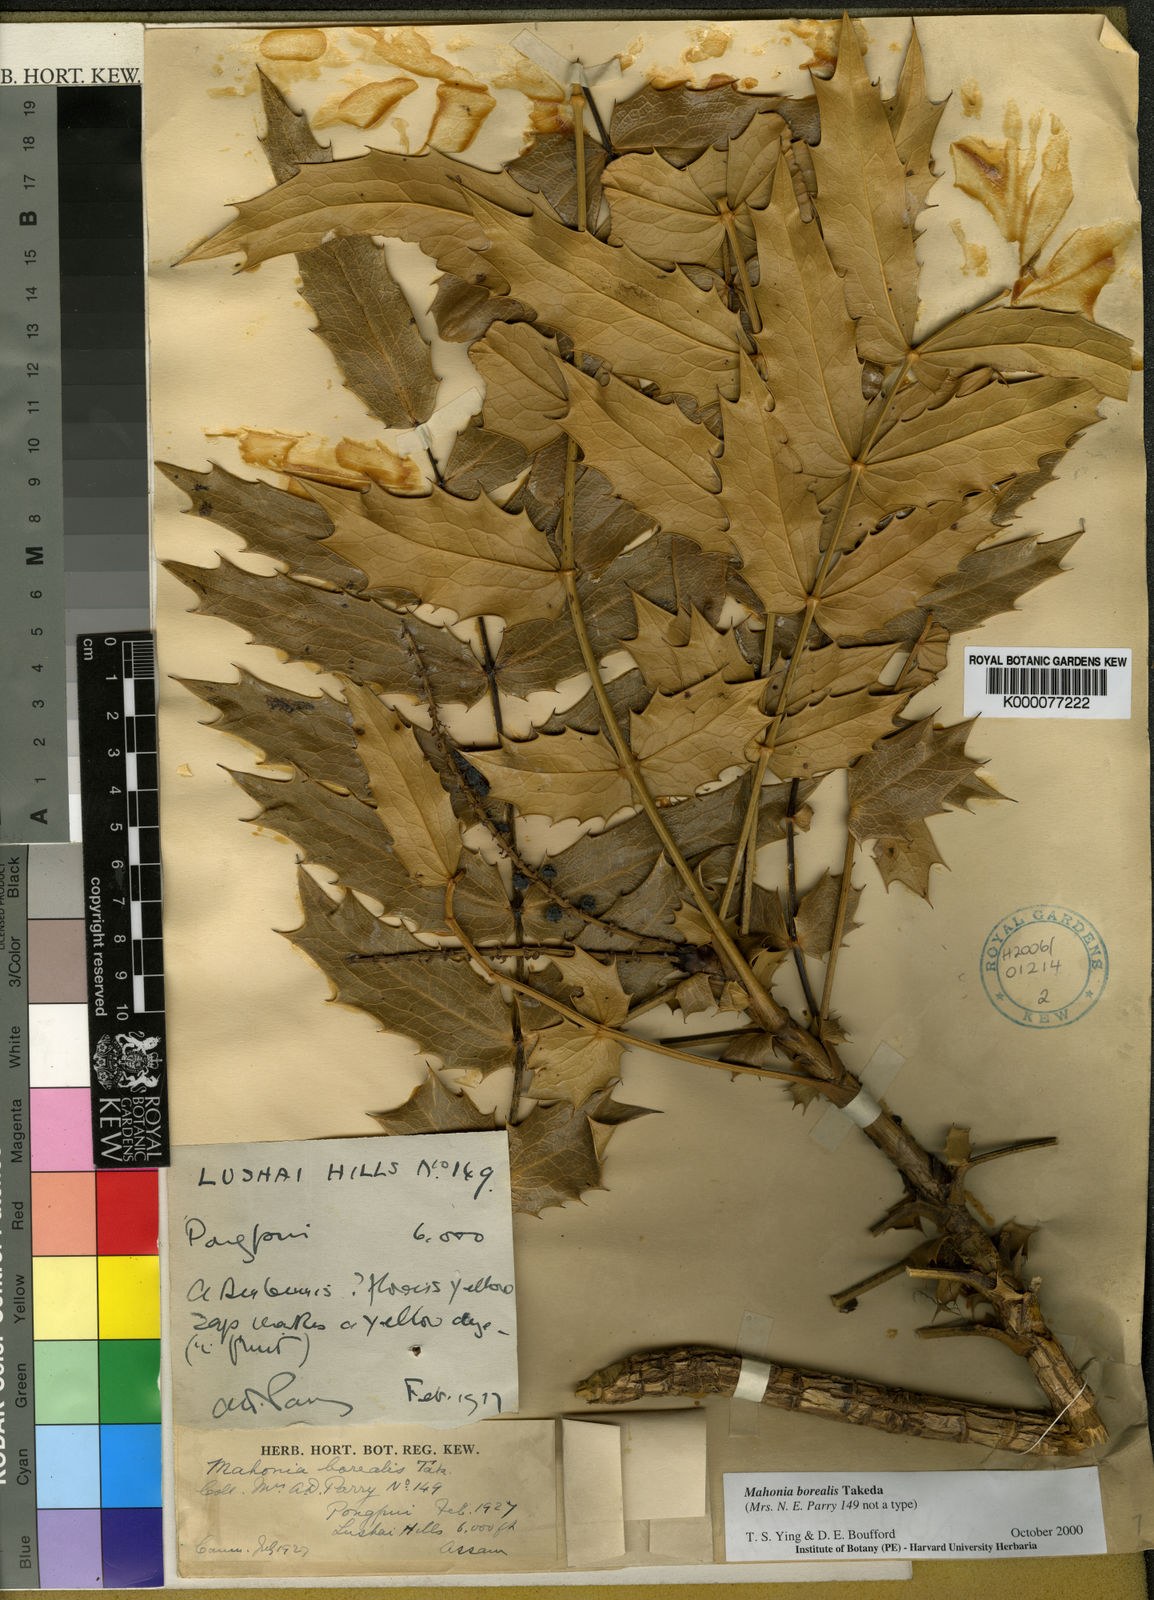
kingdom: Plantae
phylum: Tracheophyta
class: Magnoliopsida
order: Ranunculales
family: Berberidaceae
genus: Mahonia
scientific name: Mahonia napaulensis
